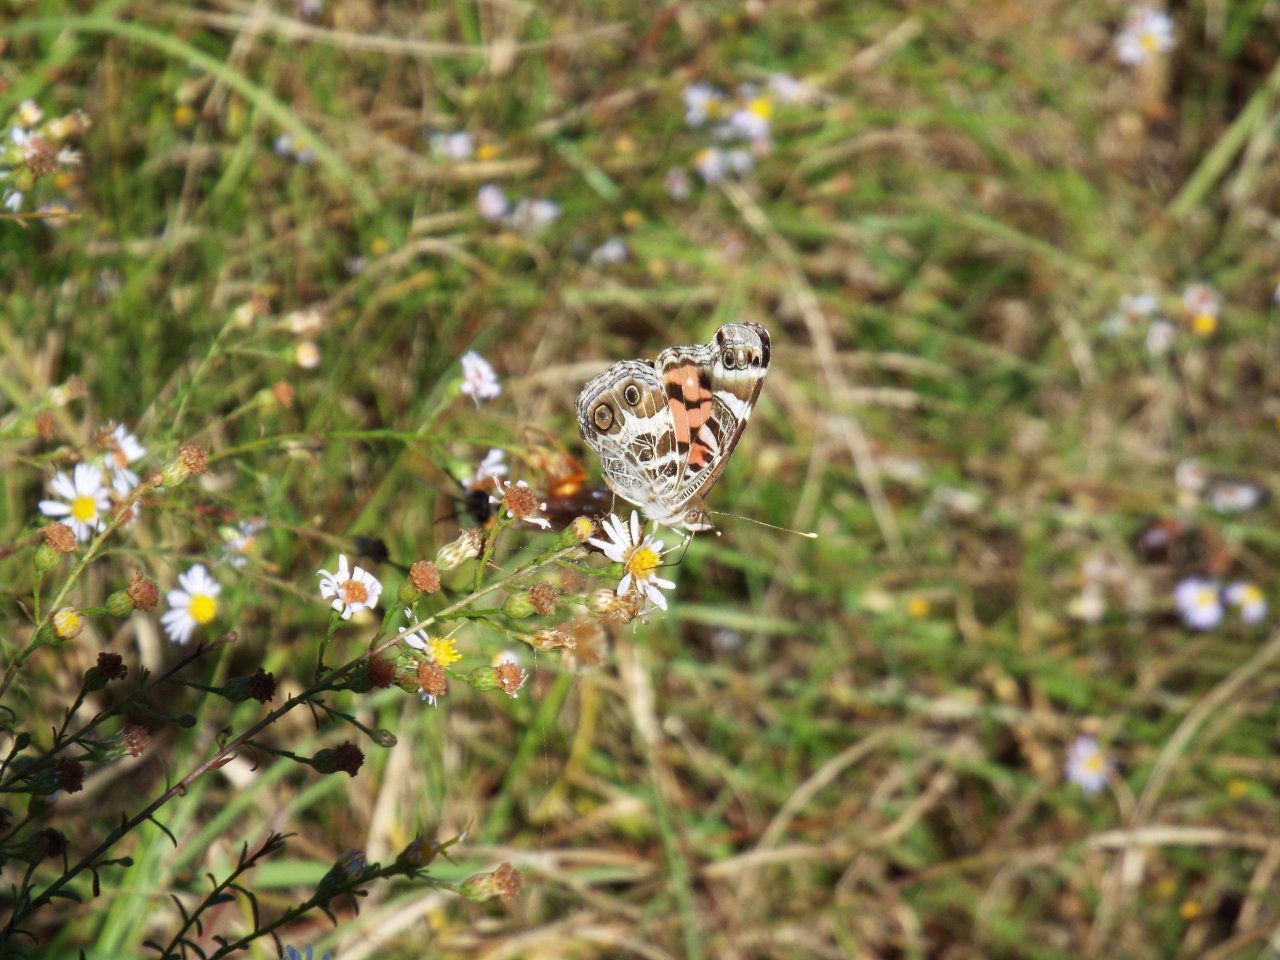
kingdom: Animalia
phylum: Arthropoda
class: Insecta
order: Lepidoptera
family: Nymphalidae
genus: Vanessa
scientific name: Vanessa virginiensis
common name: American Lady
